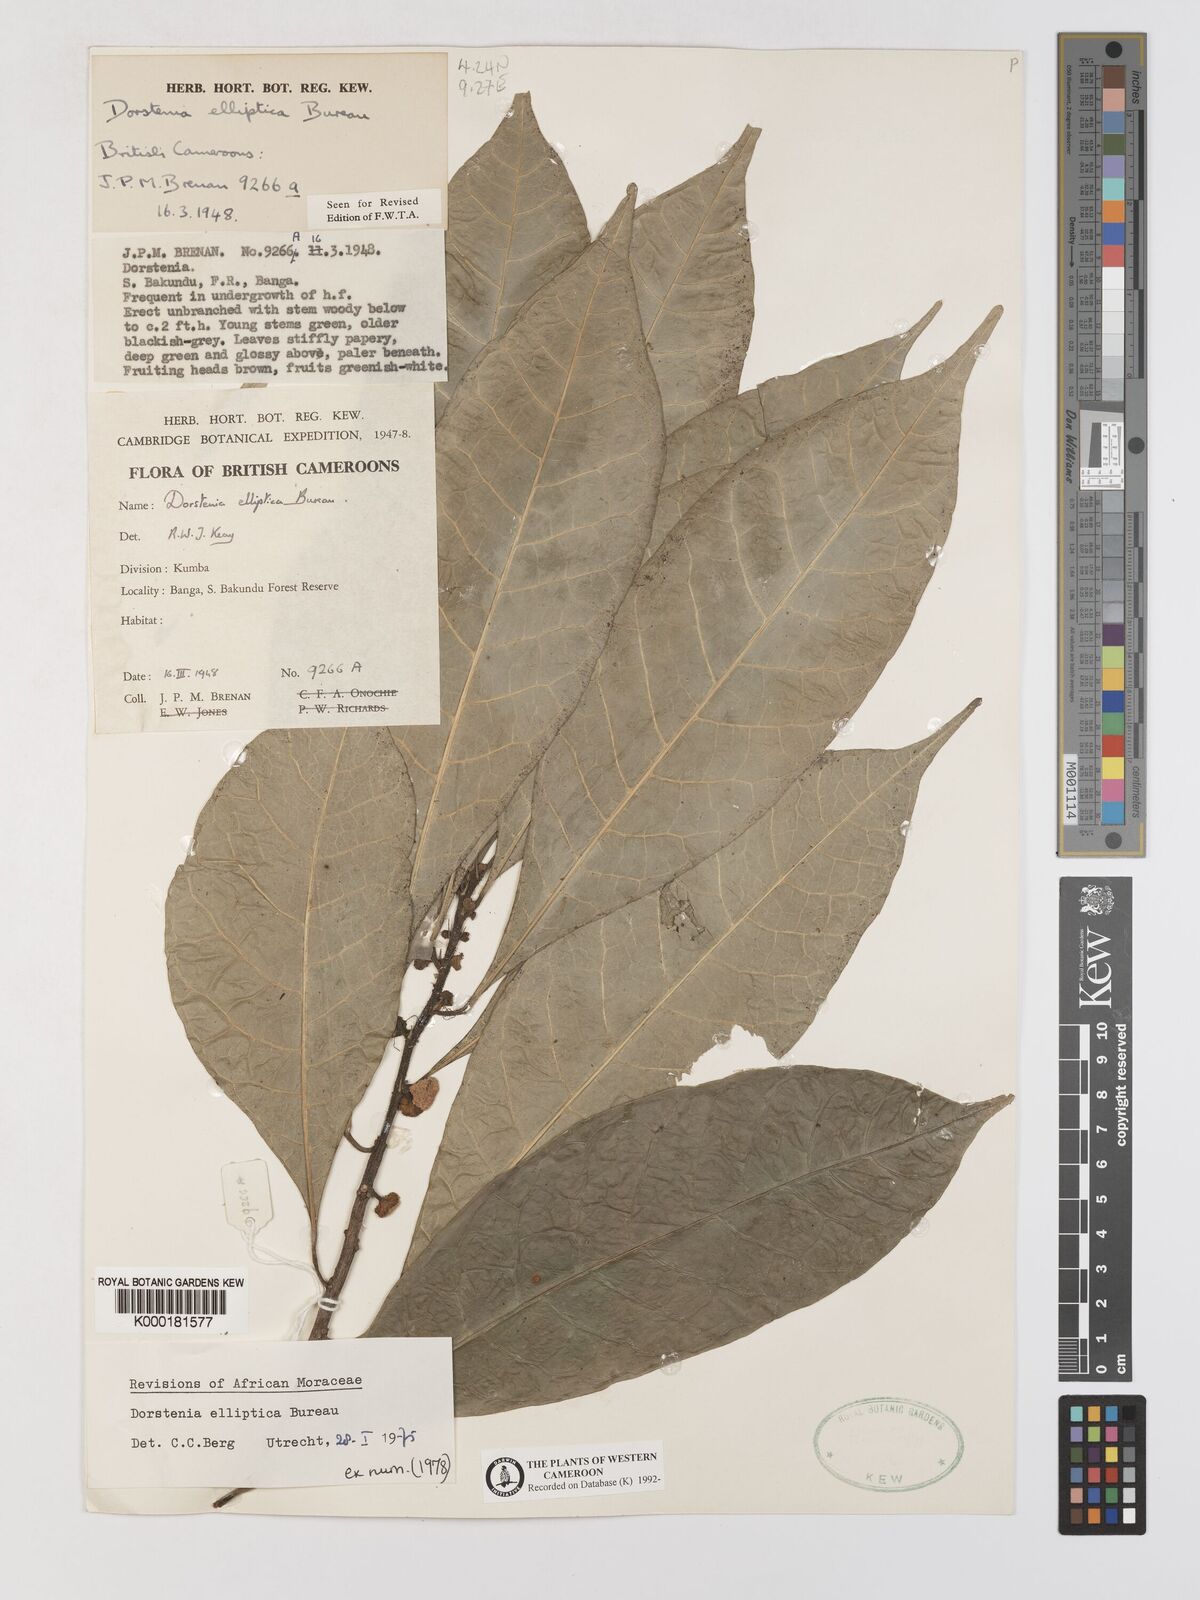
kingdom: Plantae
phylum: Tracheophyta
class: Magnoliopsida
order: Rosales
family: Moraceae
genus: Dorstenia
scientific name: Dorstenia elliptica
